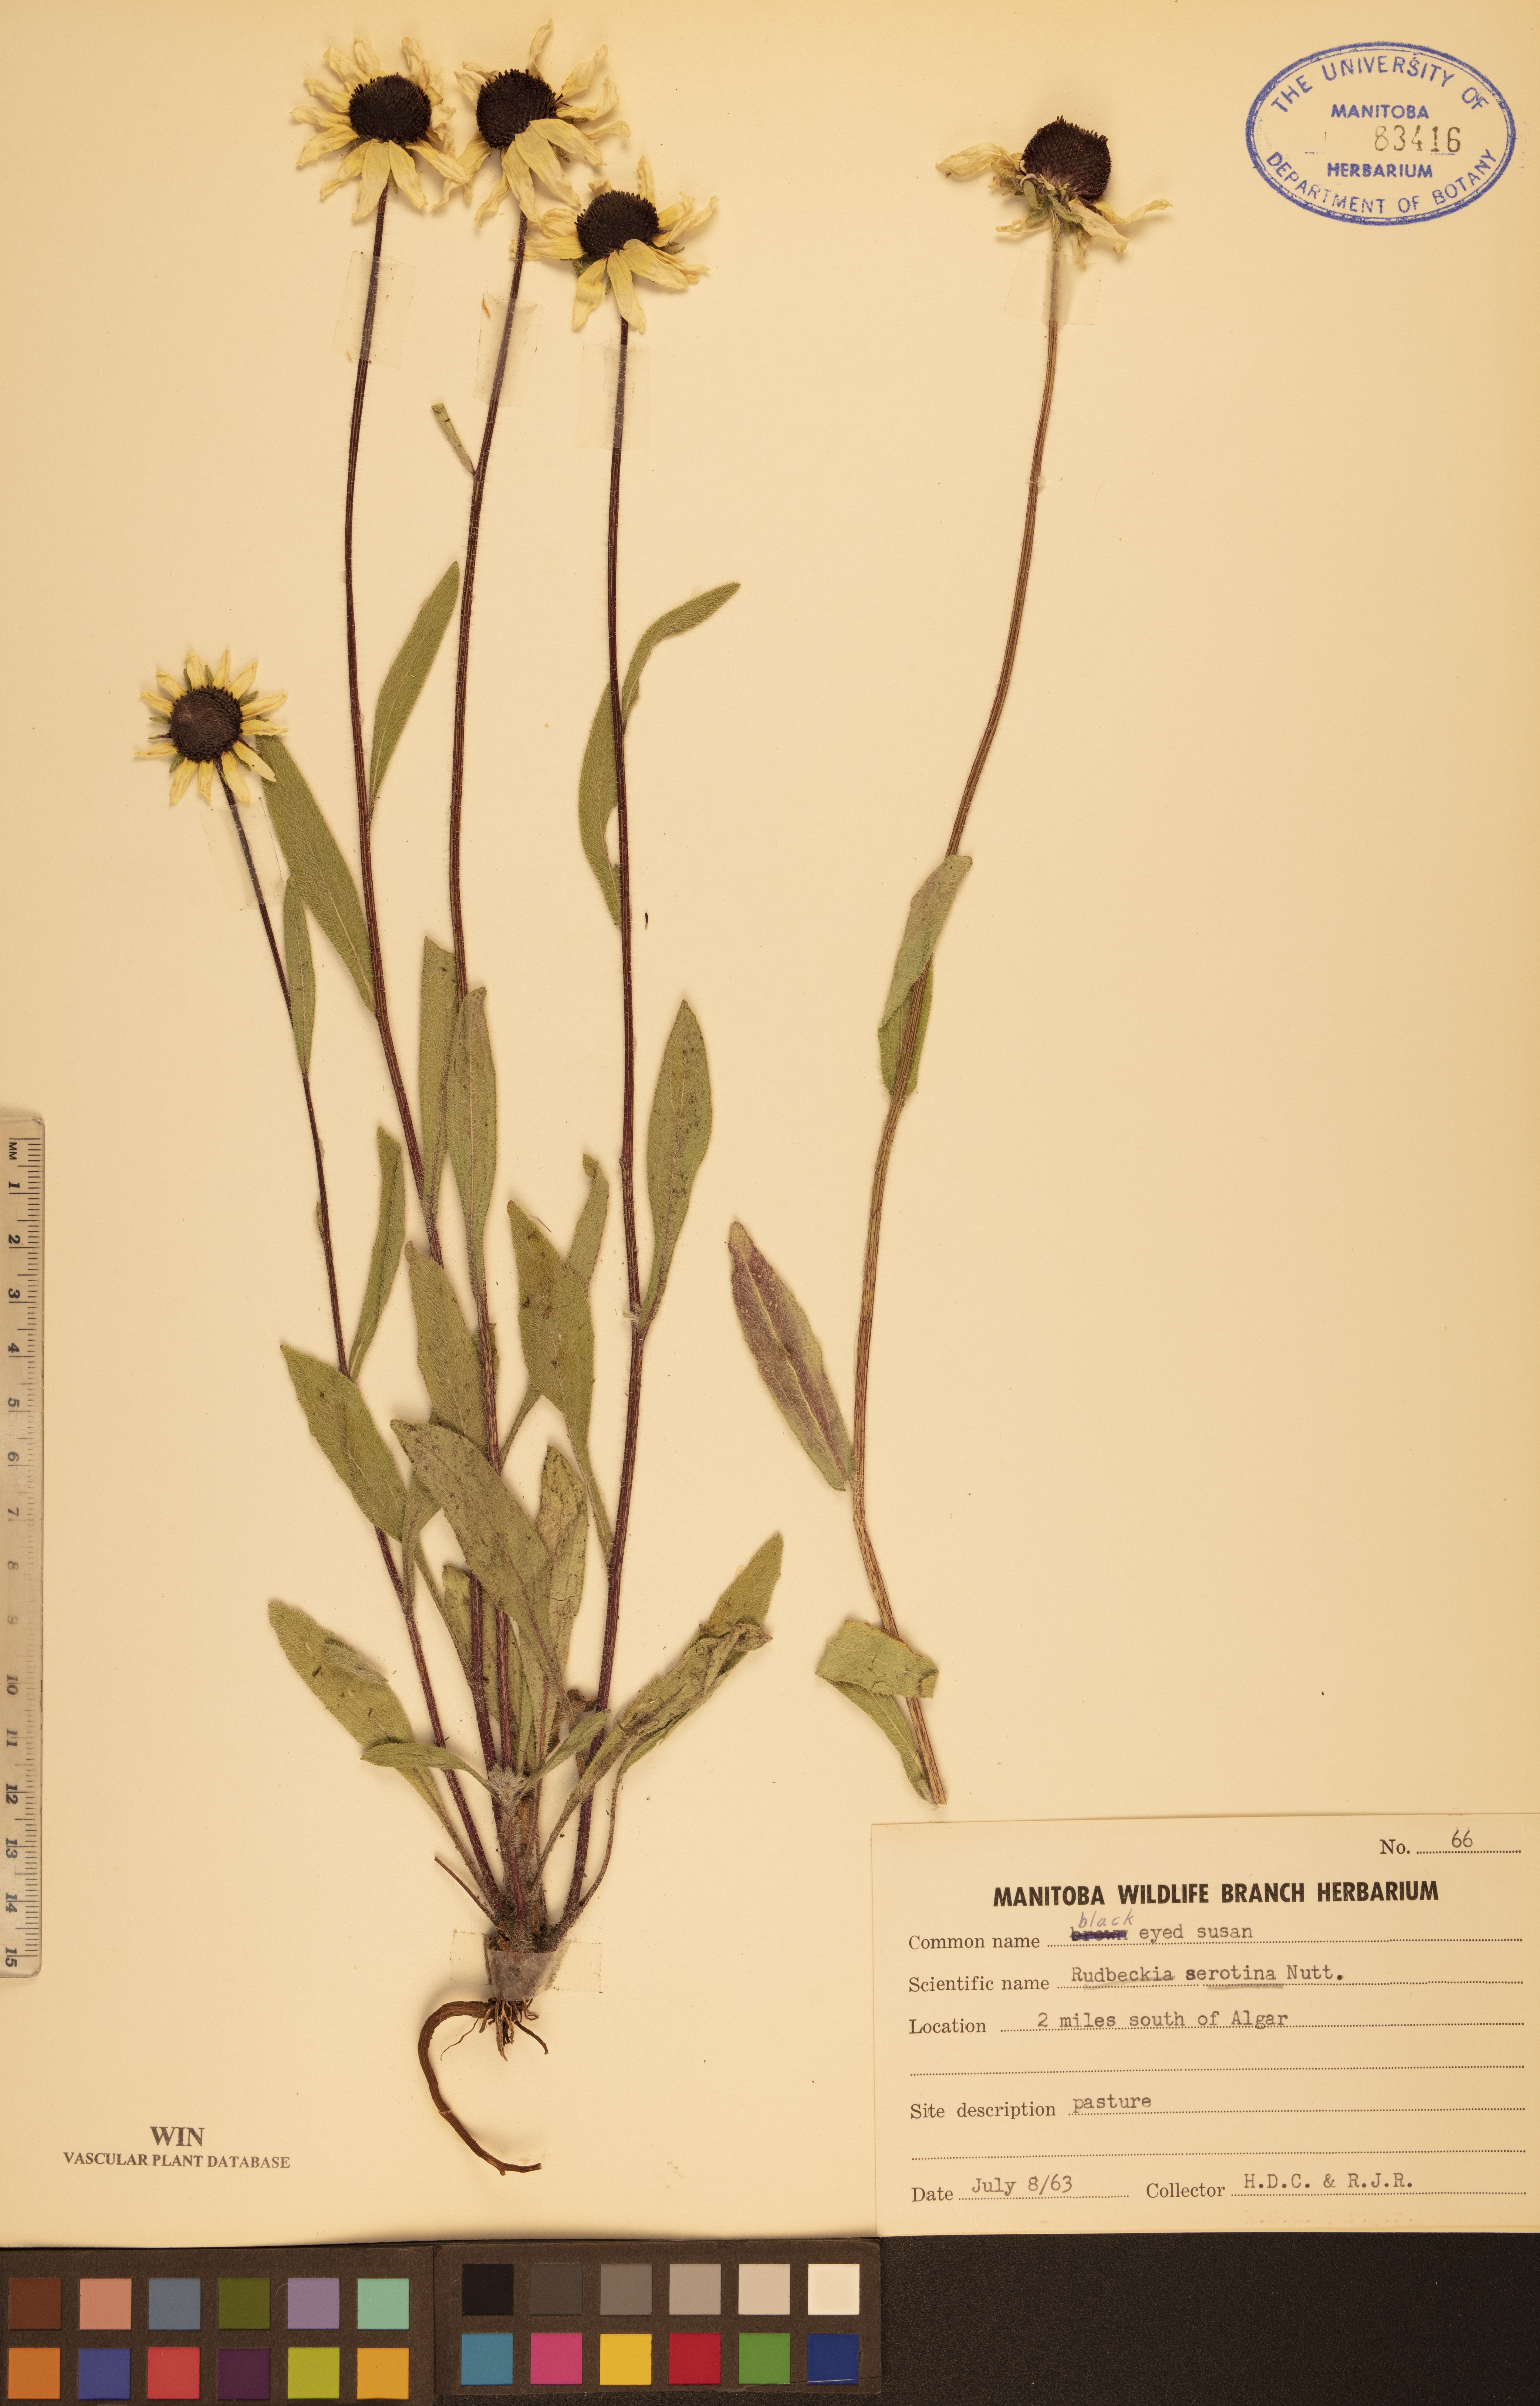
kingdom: Plantae
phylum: Tracheophyta
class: Magnoliopsida
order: Asterales
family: Asteraceae
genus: Echinacea
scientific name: Echinacea purpurea
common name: Broad-leaved purple coneflower
